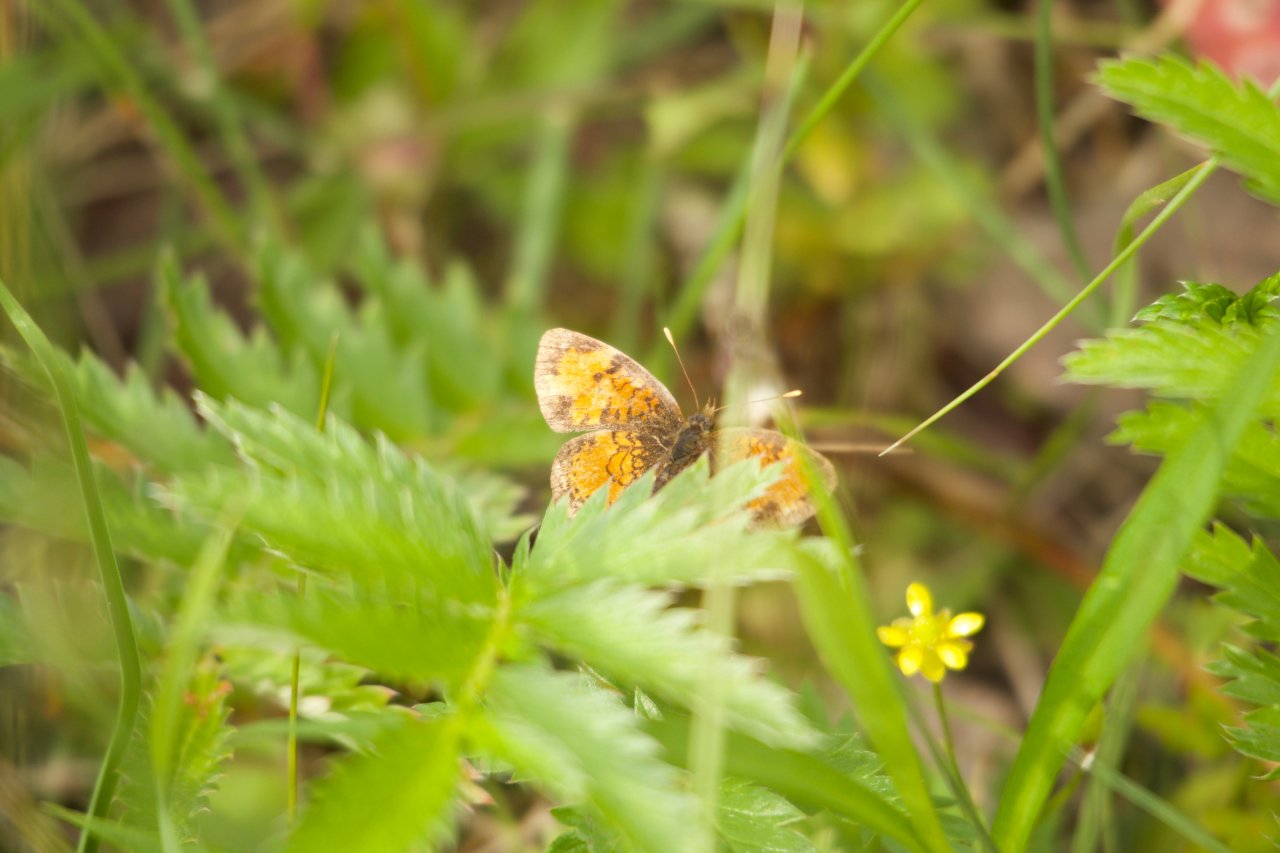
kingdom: Animalia
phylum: Arthropoda
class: Insecta
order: Lepidoptera
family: Nymphalidae
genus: Phyciodes
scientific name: Phyciodes tharos
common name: Northern Crescent
